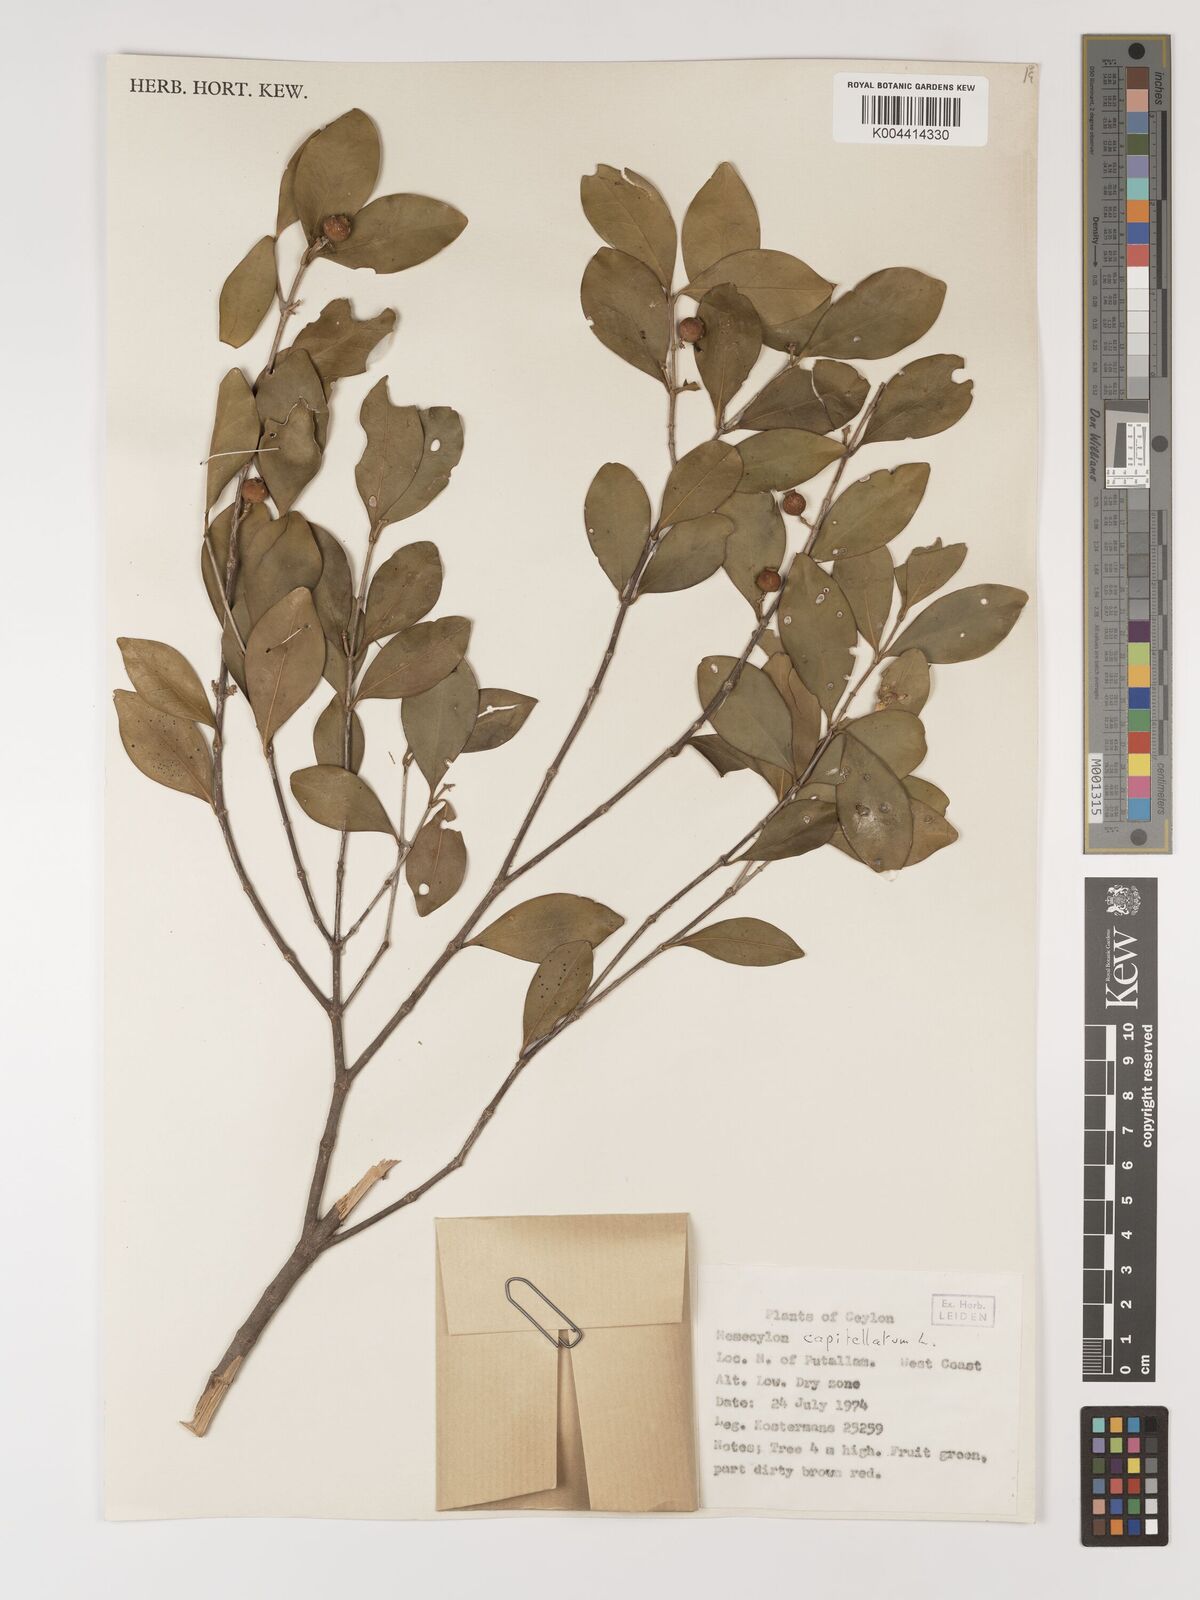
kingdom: Plantae
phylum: Tracheophyta
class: Magnoliopsida
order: Myrtales
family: Melastomataceae
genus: Memecylon
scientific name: Memecylon capitellatum
